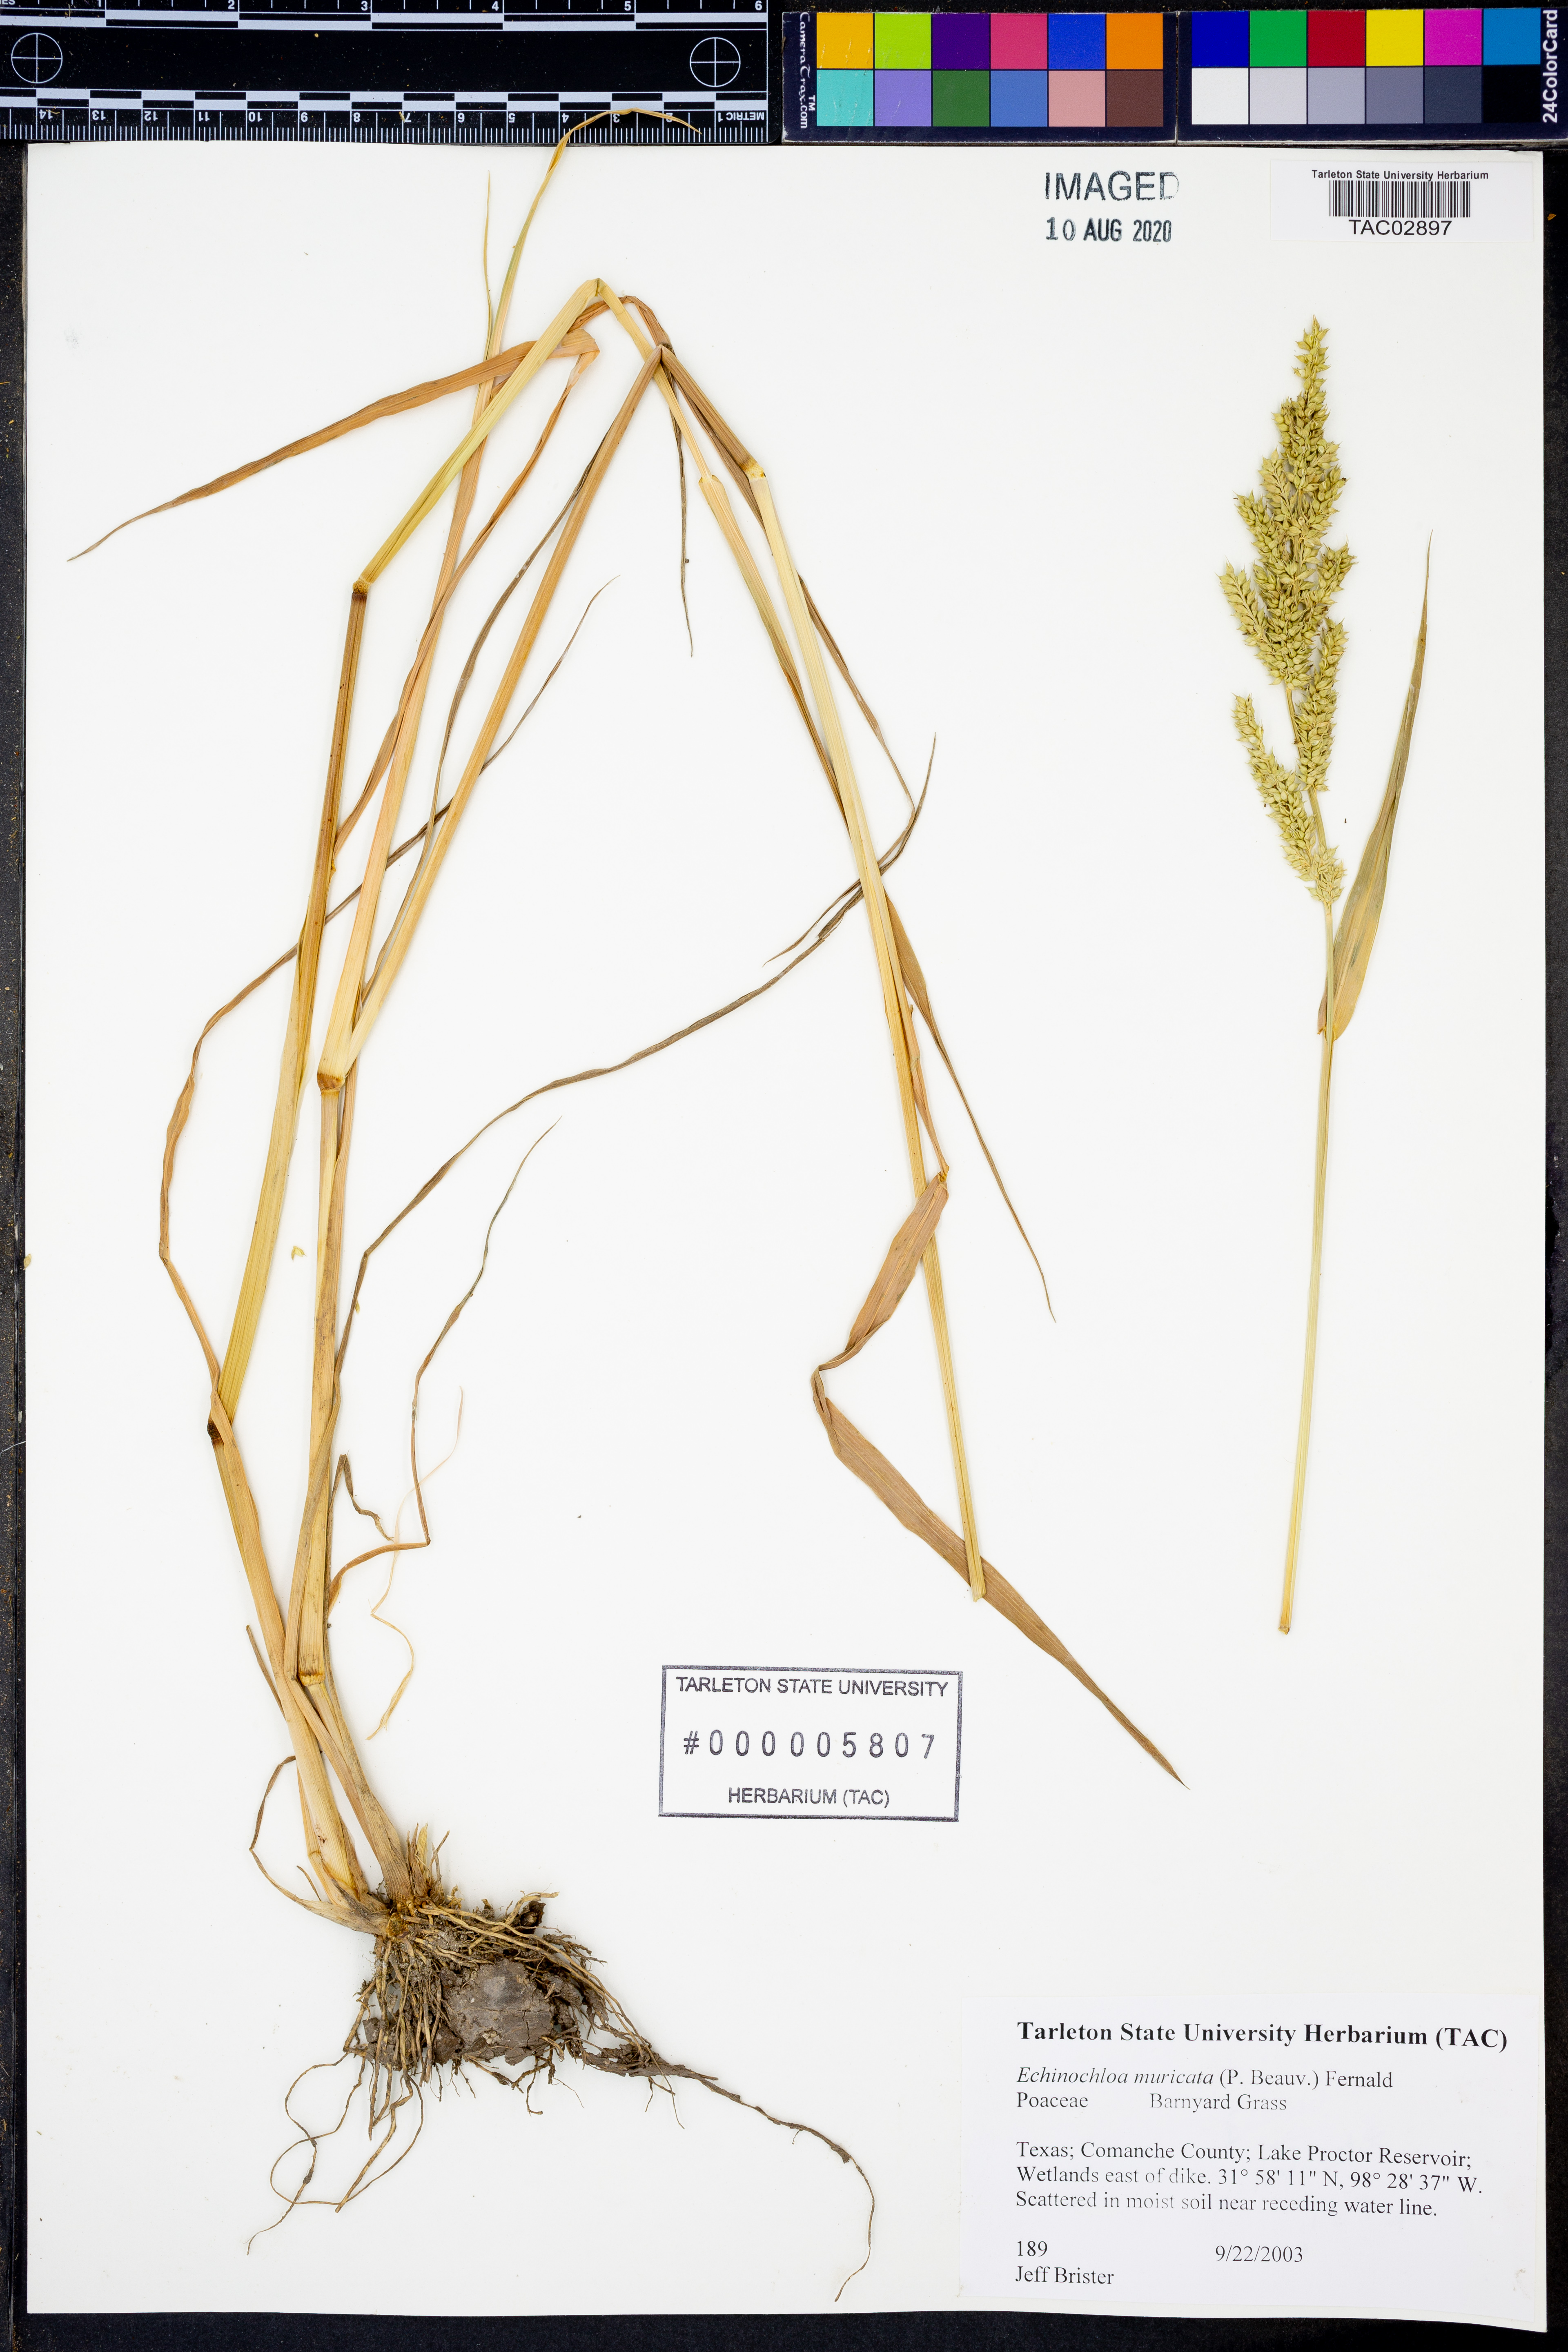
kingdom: Plantae
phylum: Tracheophyta
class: Liliopsida
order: Poales
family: Poaceae
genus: Echinochloa
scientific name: Echinochloa muricata
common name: American barnyard grass
